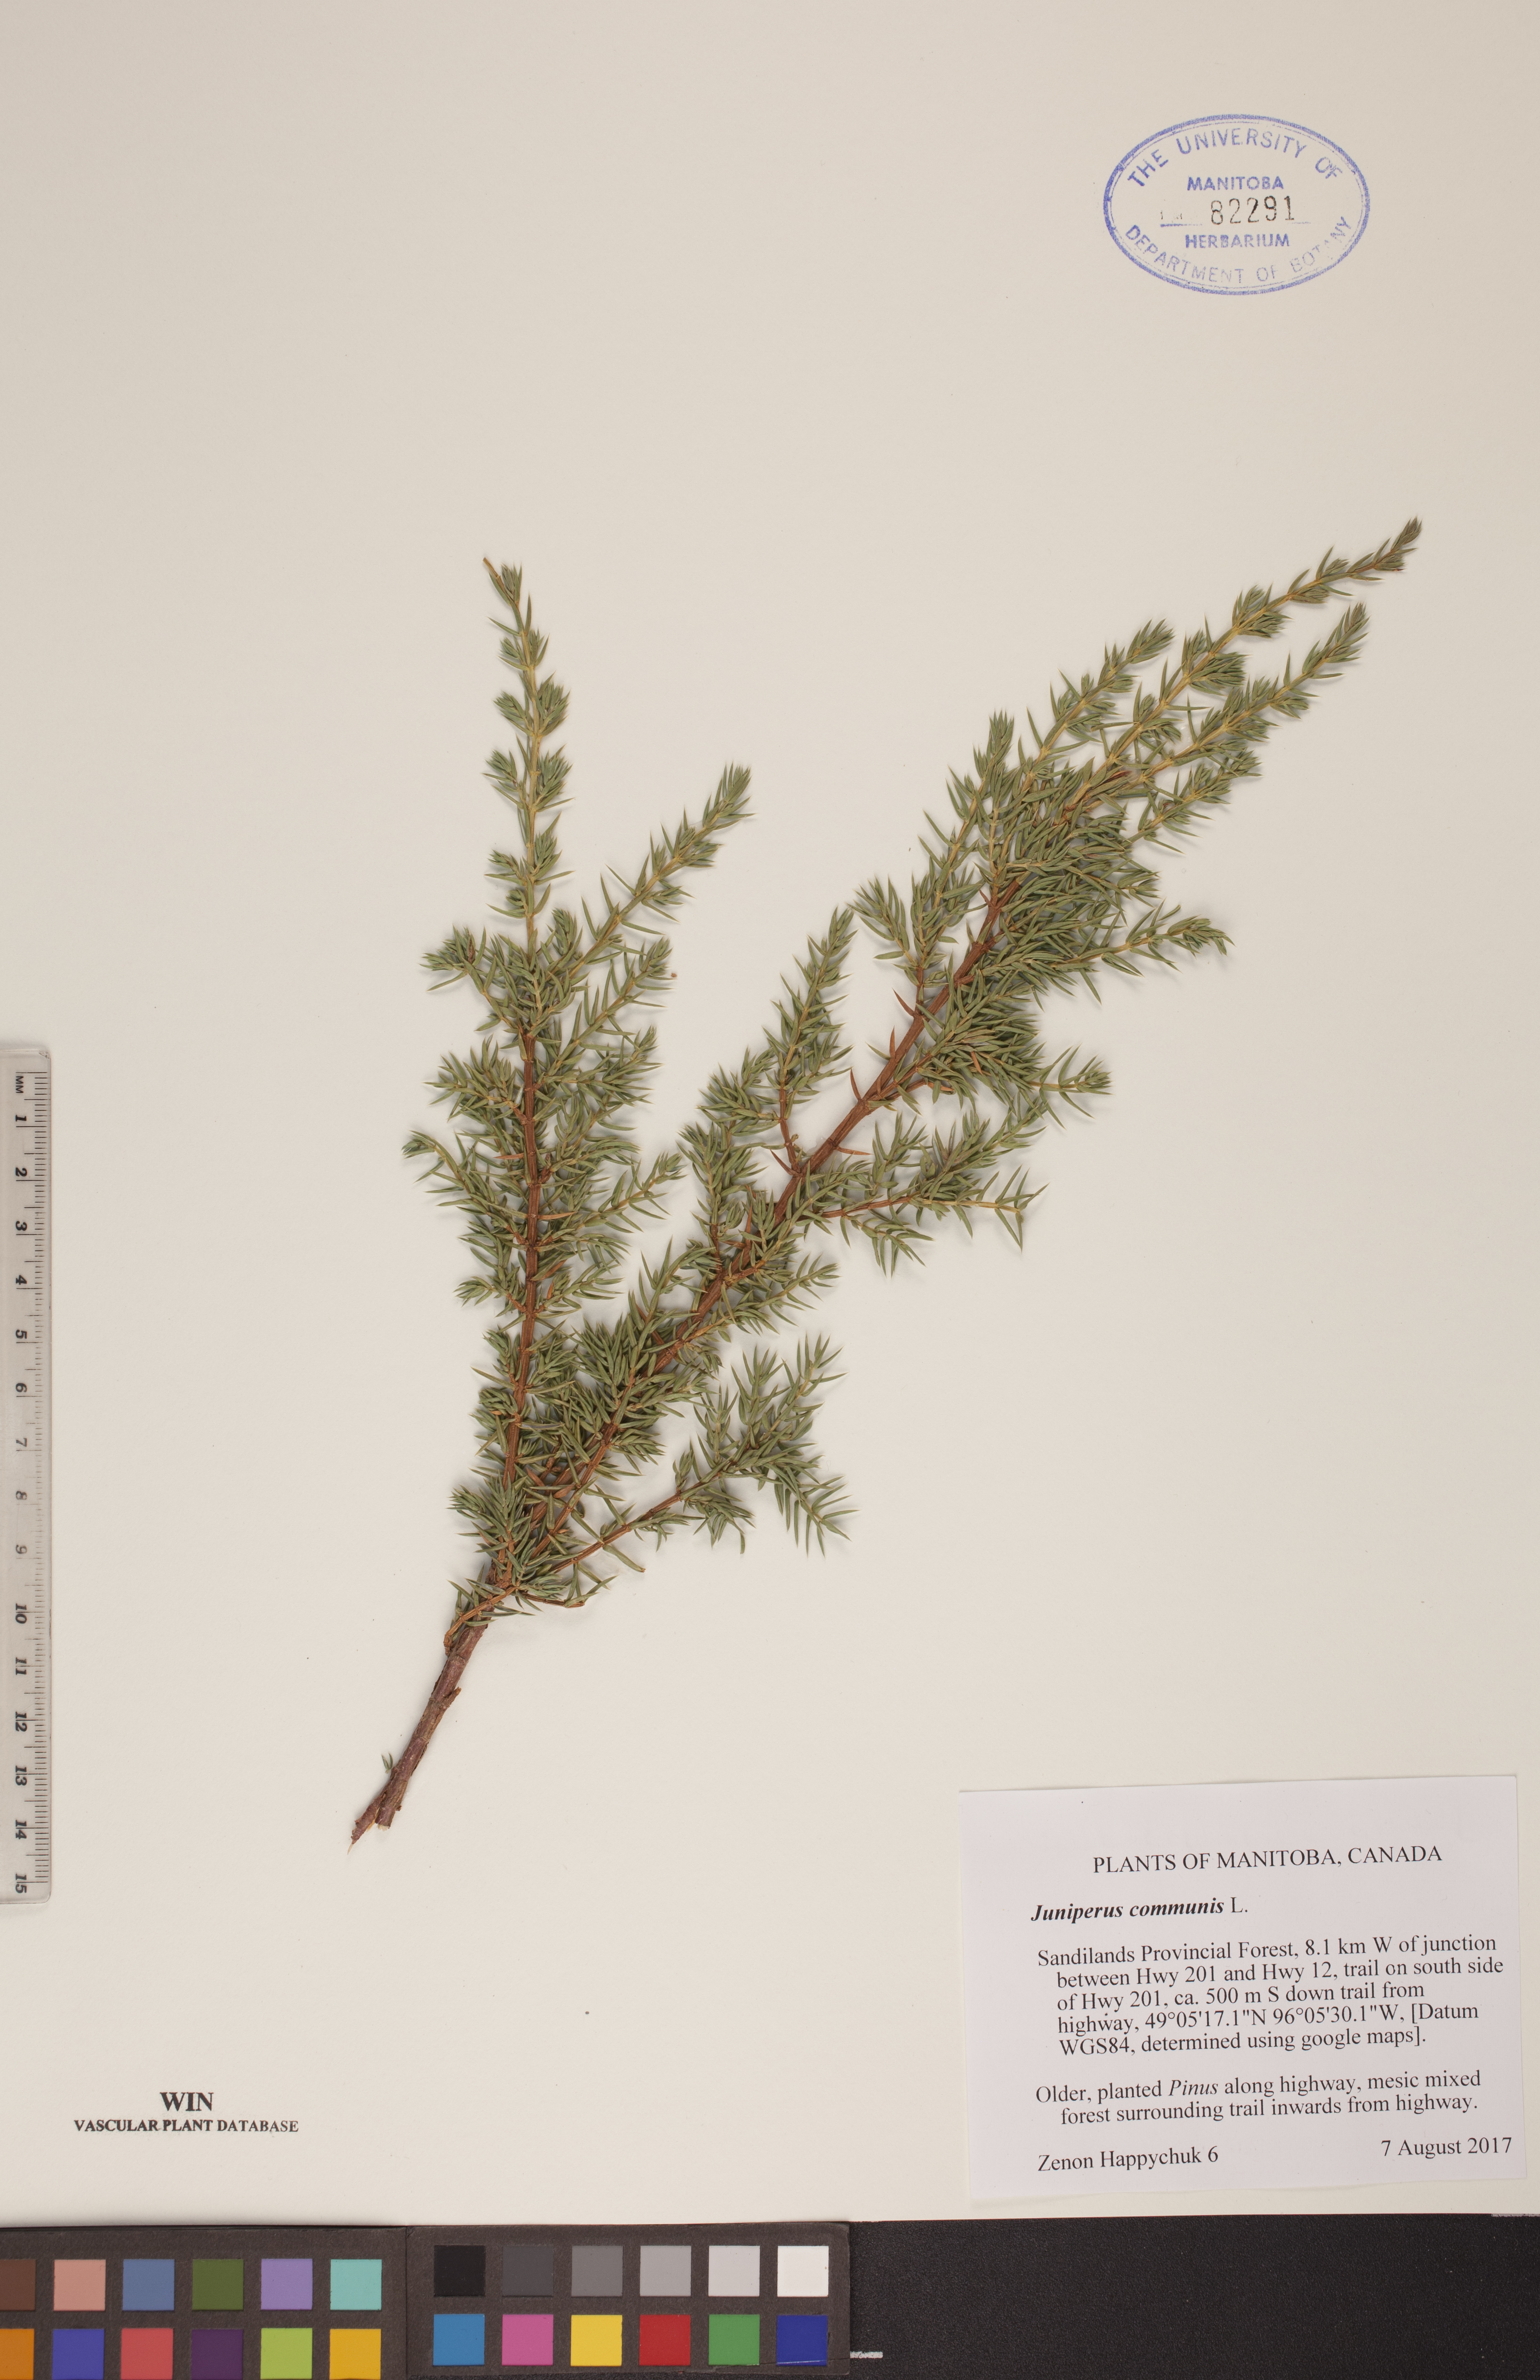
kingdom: Plantae
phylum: Tracheophyta
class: Pinopsida
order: Pinales
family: Cupressaceae
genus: Juniperus
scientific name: Juniperus communis
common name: Common juniper
